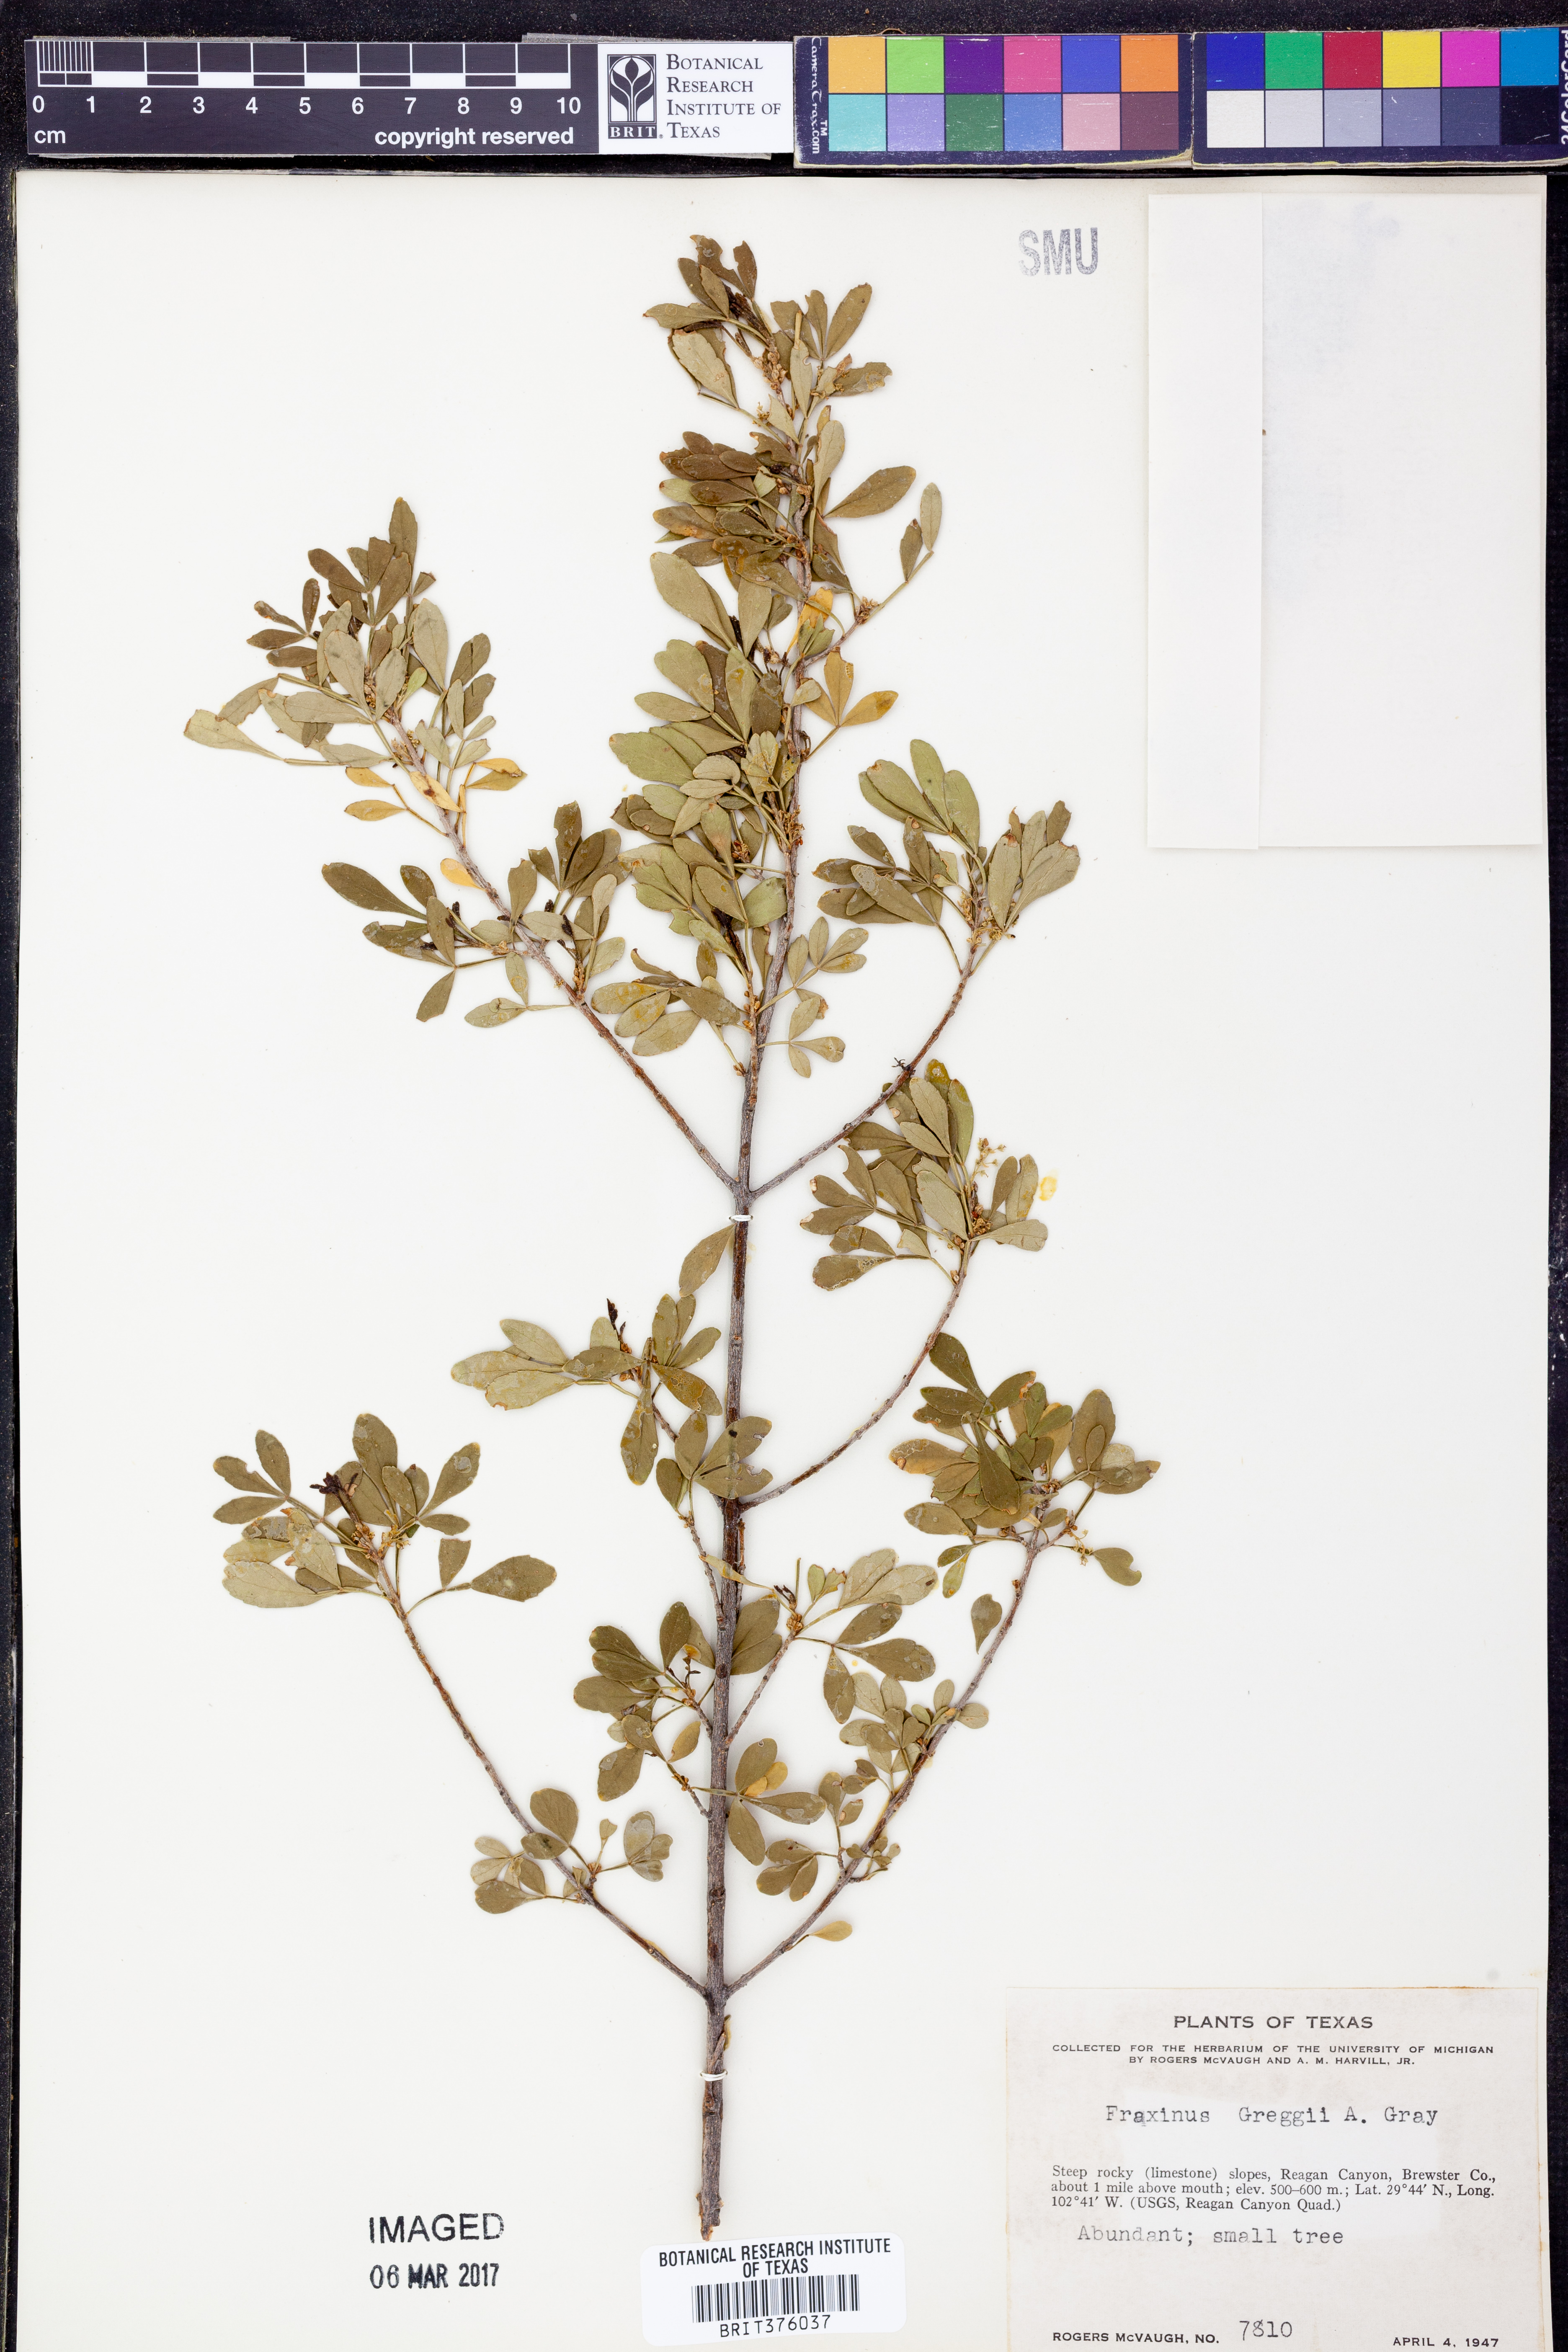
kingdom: Plantae
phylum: Tracheophyta
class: Magnoliopsida
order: Lamiales
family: Oleaceae
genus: Fraxinus
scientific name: Fraxinus greggii
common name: Gregg ash
